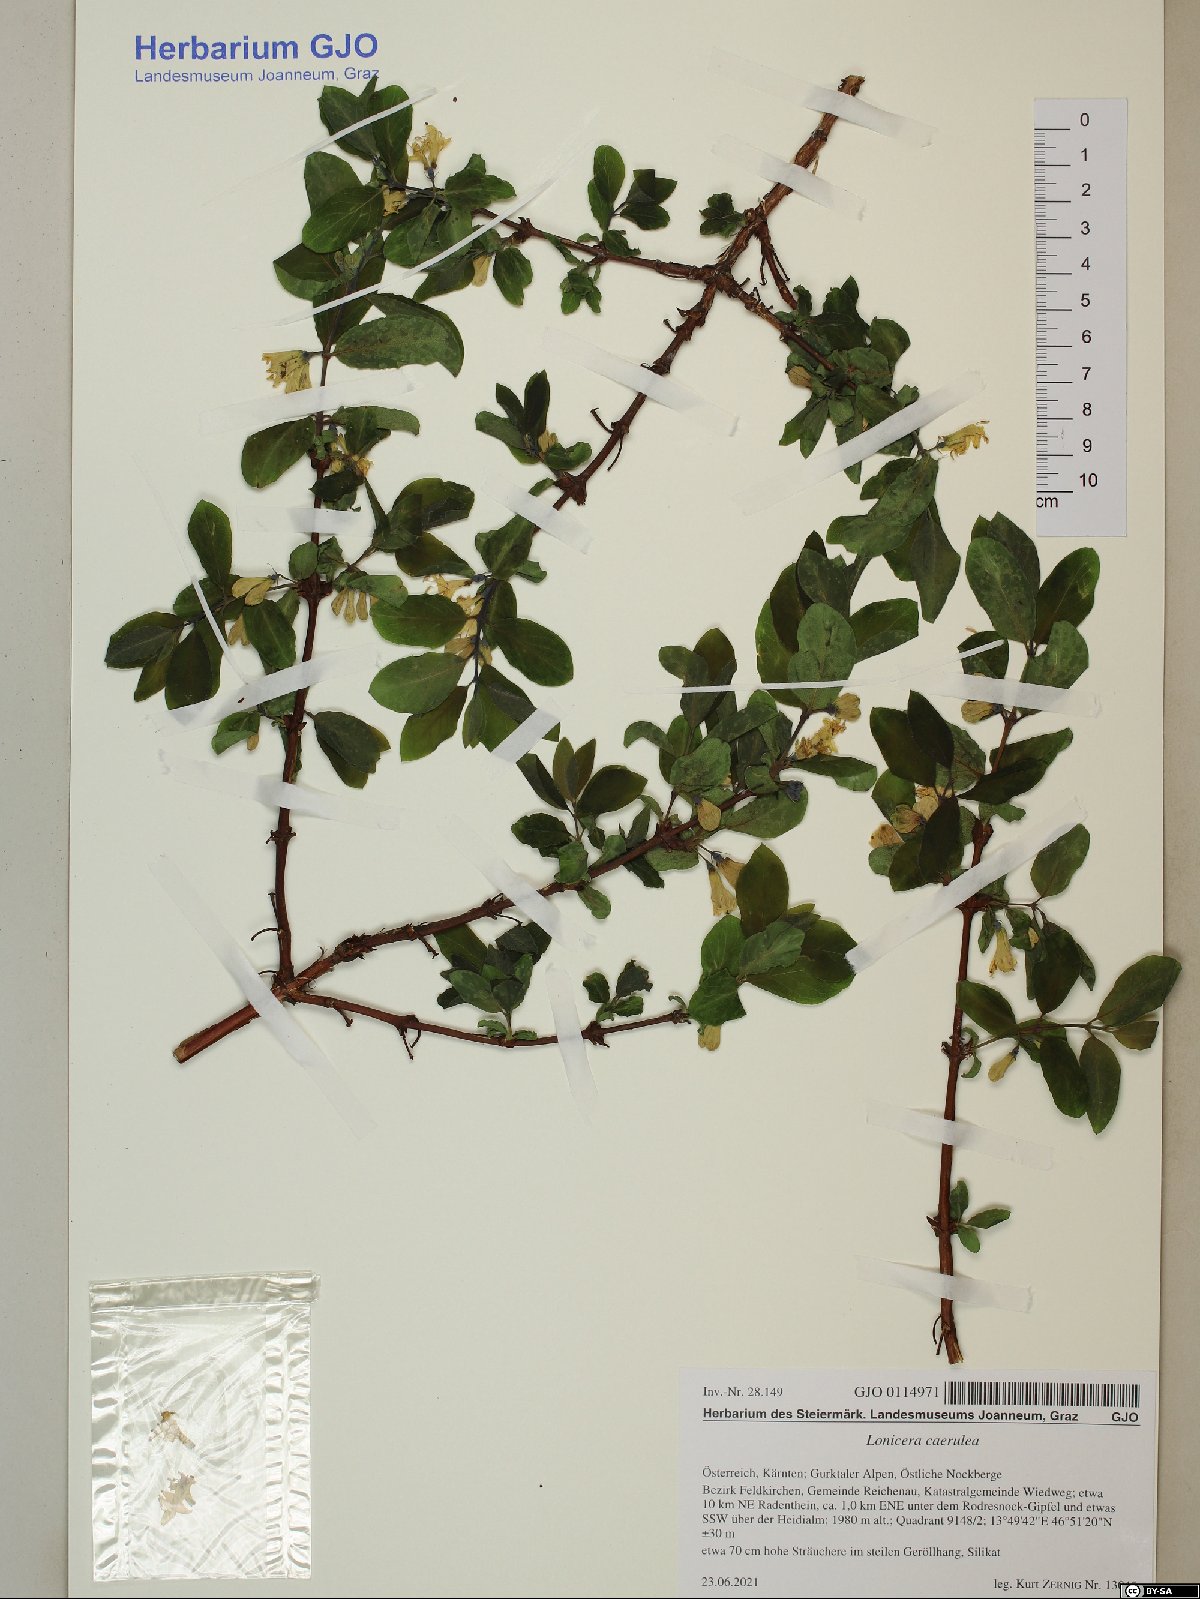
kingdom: Plantae
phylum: Tracheophyta
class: Magnoliopsida
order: Dipsacales
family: Caprifoliaceae
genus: Lonicera
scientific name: Lonicera caerulea
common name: Blue honeysuckle
